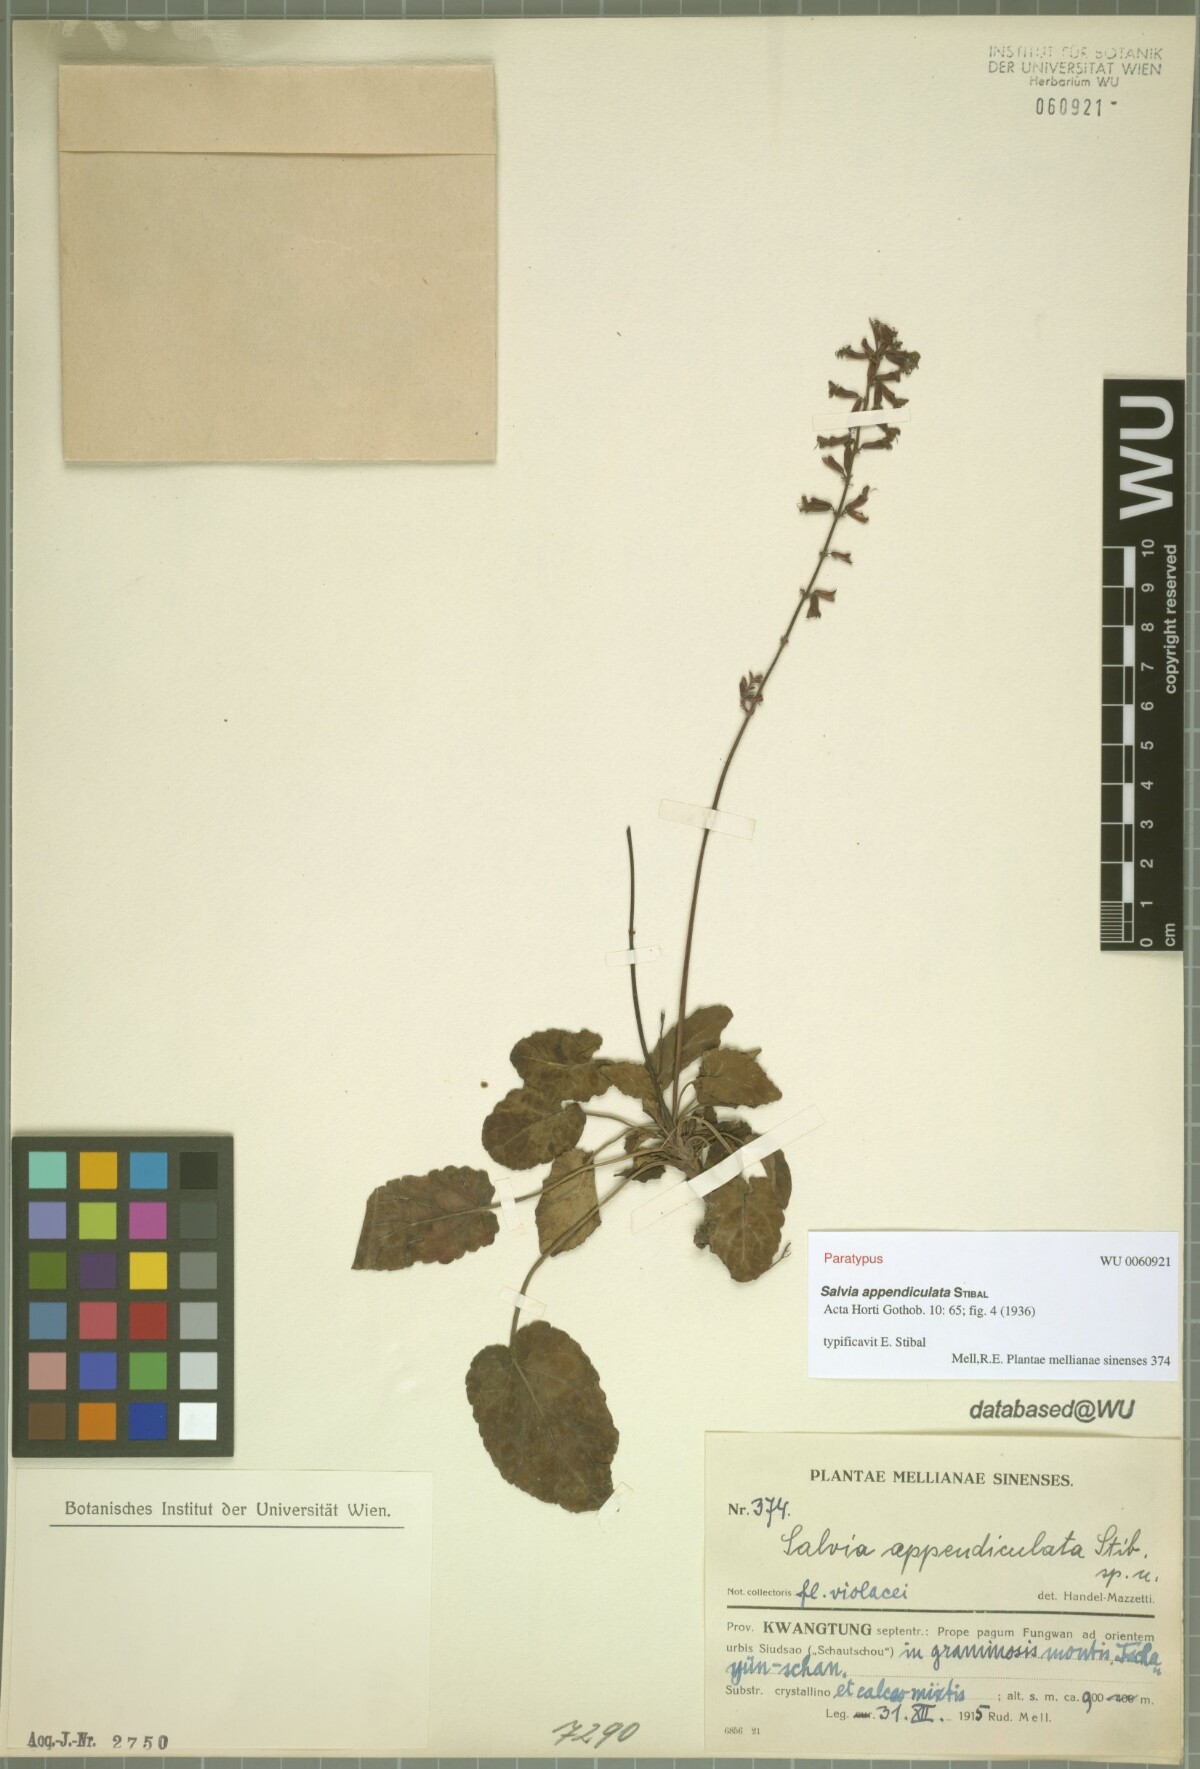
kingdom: Plantae
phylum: Tracheophyta
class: Magnoliopsida
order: Lamiales
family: Lamiaceae
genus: Salvia
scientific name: Salvia appendiculata
